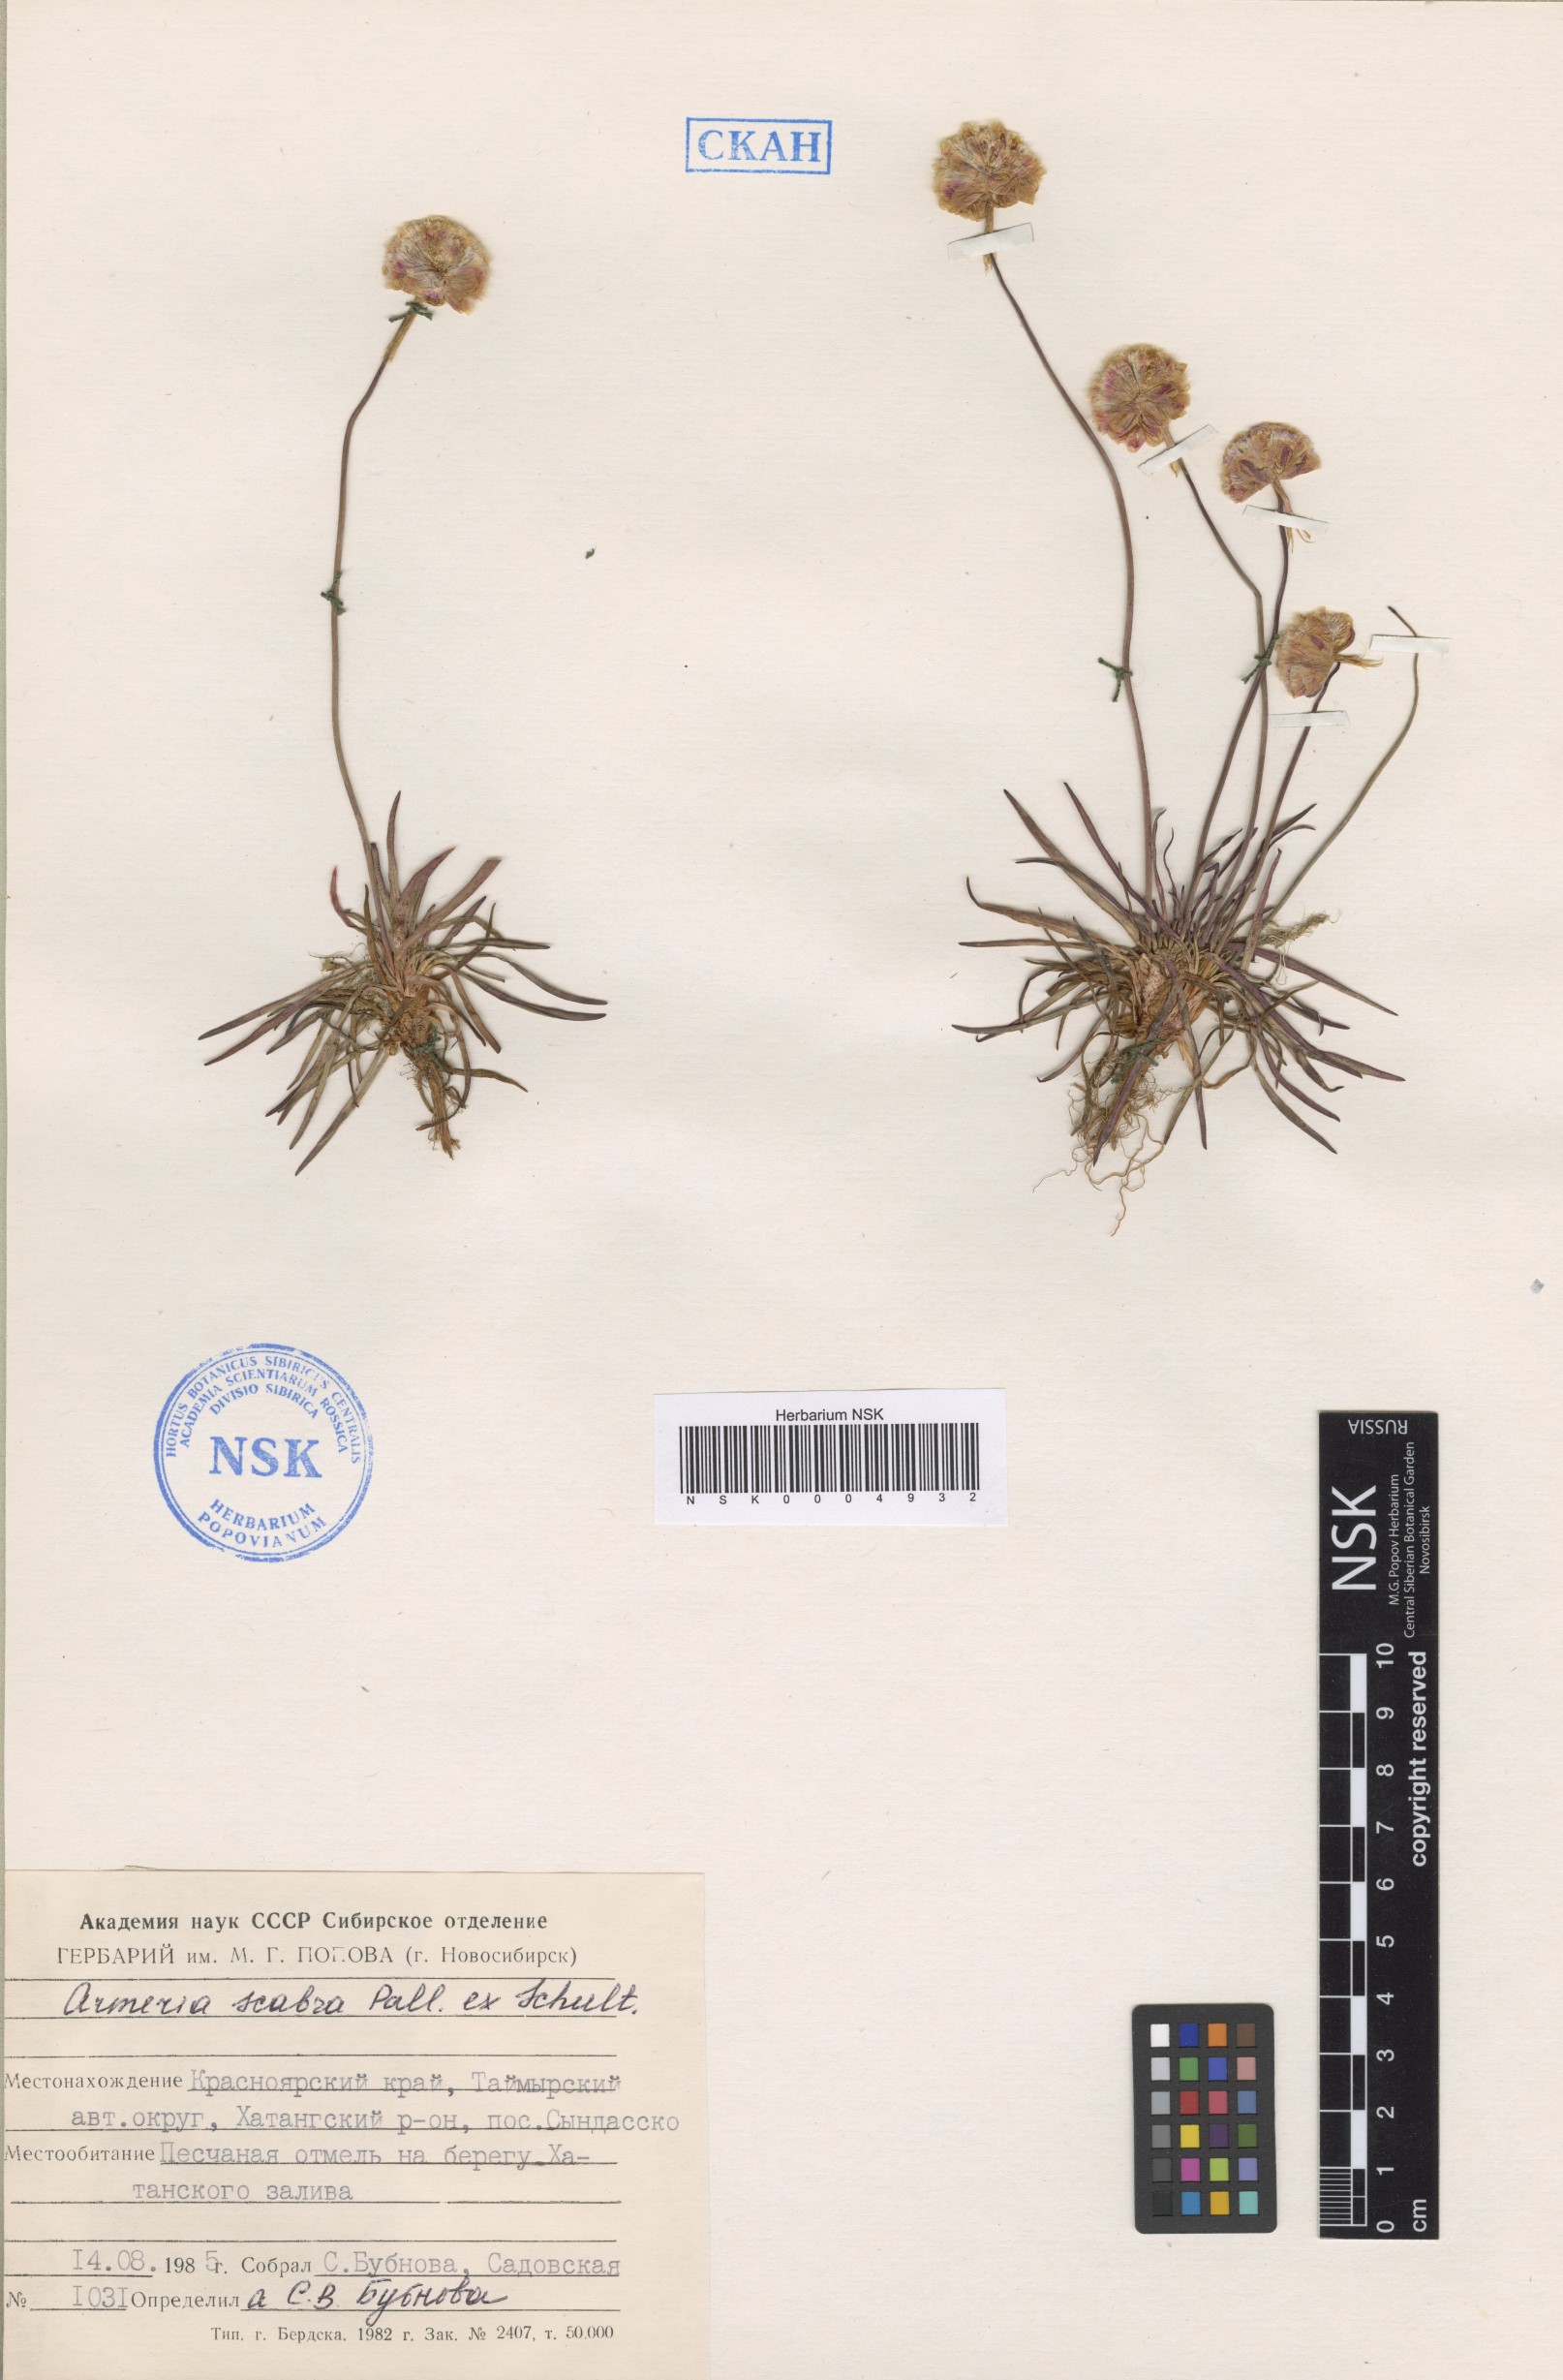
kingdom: Plantae
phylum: Tracheophyta
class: Magnoliopsida
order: Caryophyllales
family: Plumbaginaceae
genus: Armeria
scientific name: Armeria maritima
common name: Thrift
